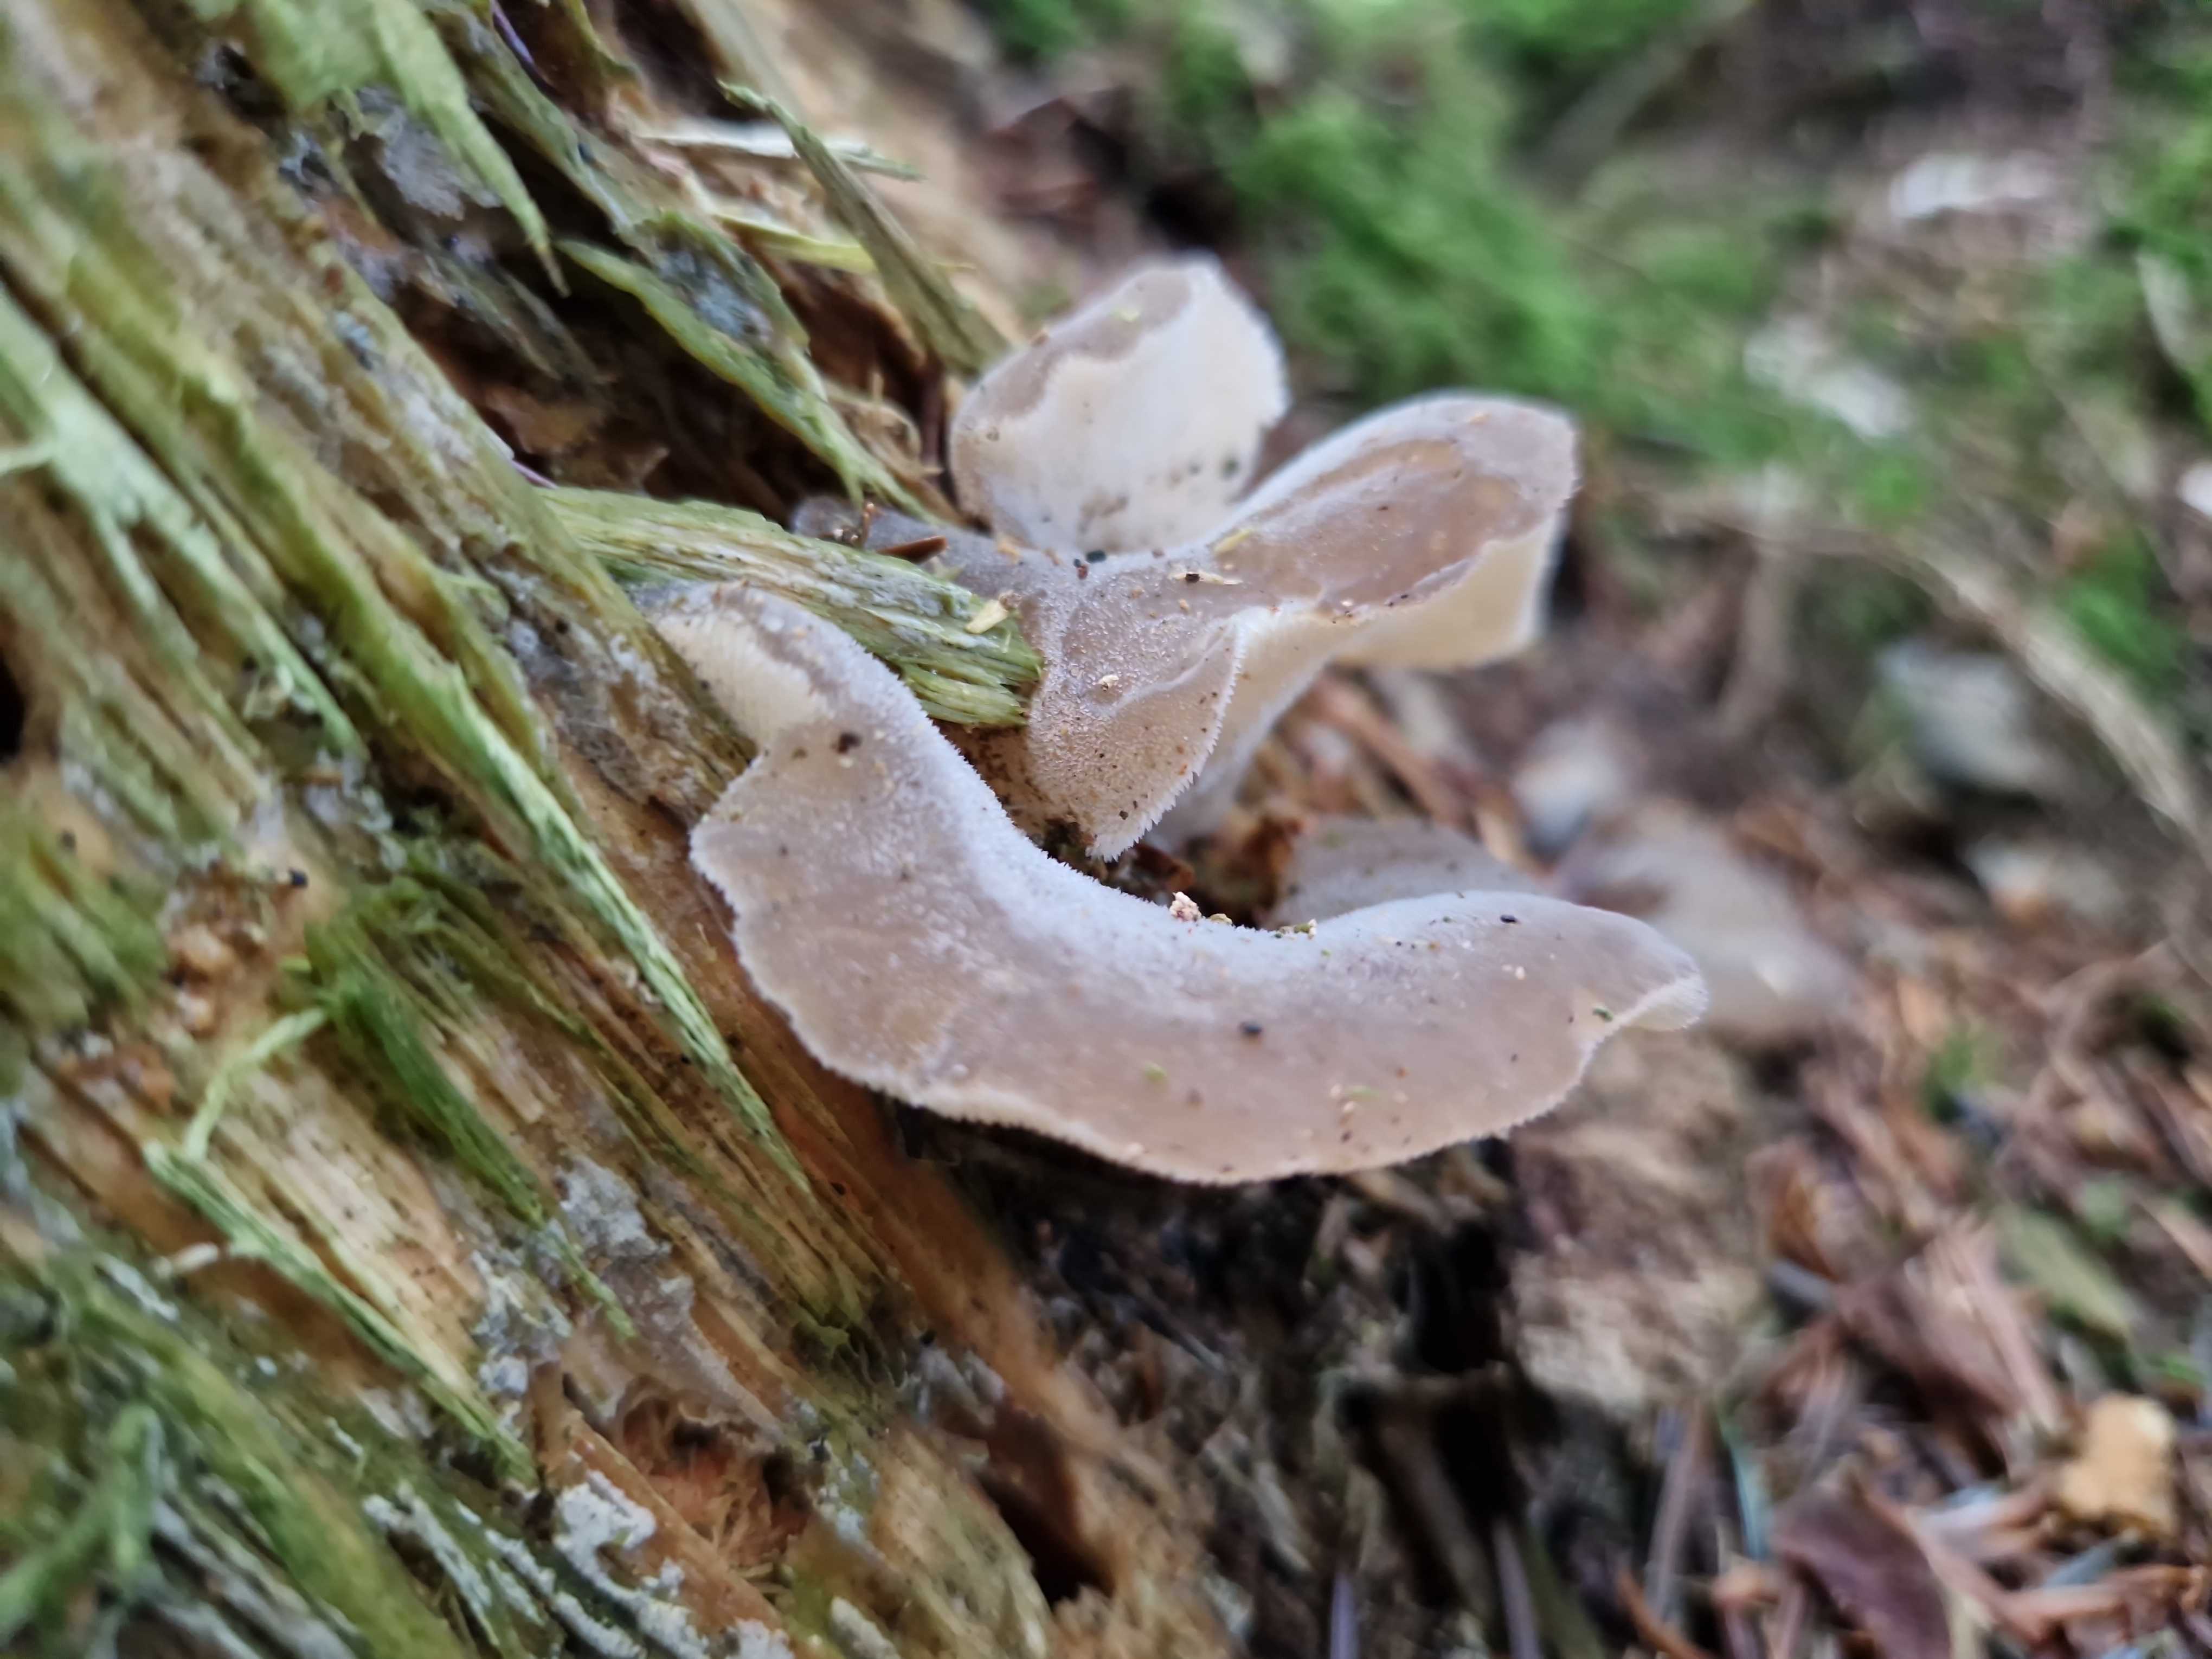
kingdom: Fungi
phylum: Basidiomycota
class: Agaricomycetes
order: Auriculariales
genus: Pseudohydnum
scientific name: Pseudohydnum gelatinosum
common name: bævretand
